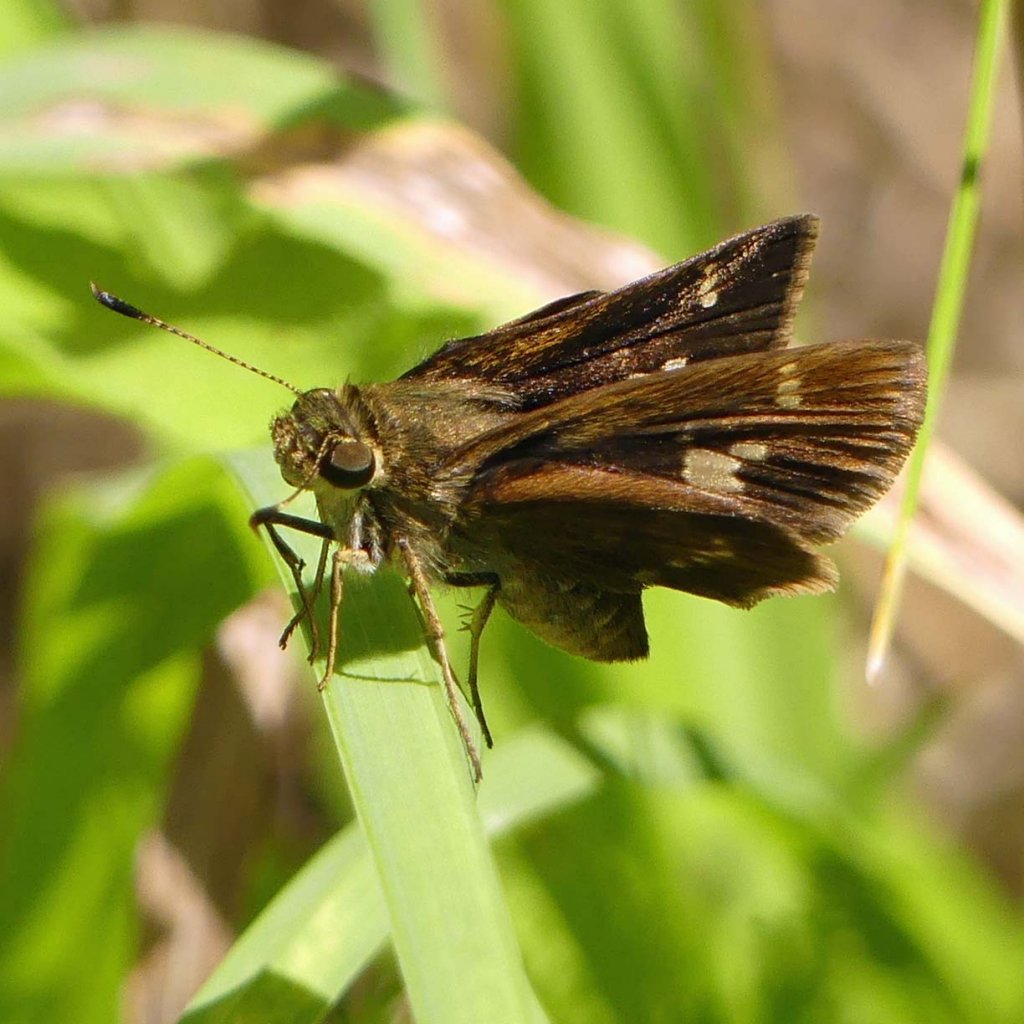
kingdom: Animalia
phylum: Arthropoda
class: Insecta
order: Lepidoptera
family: Hesperiidae
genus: Vernia
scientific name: Vernia verna
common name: Little Glassywing
